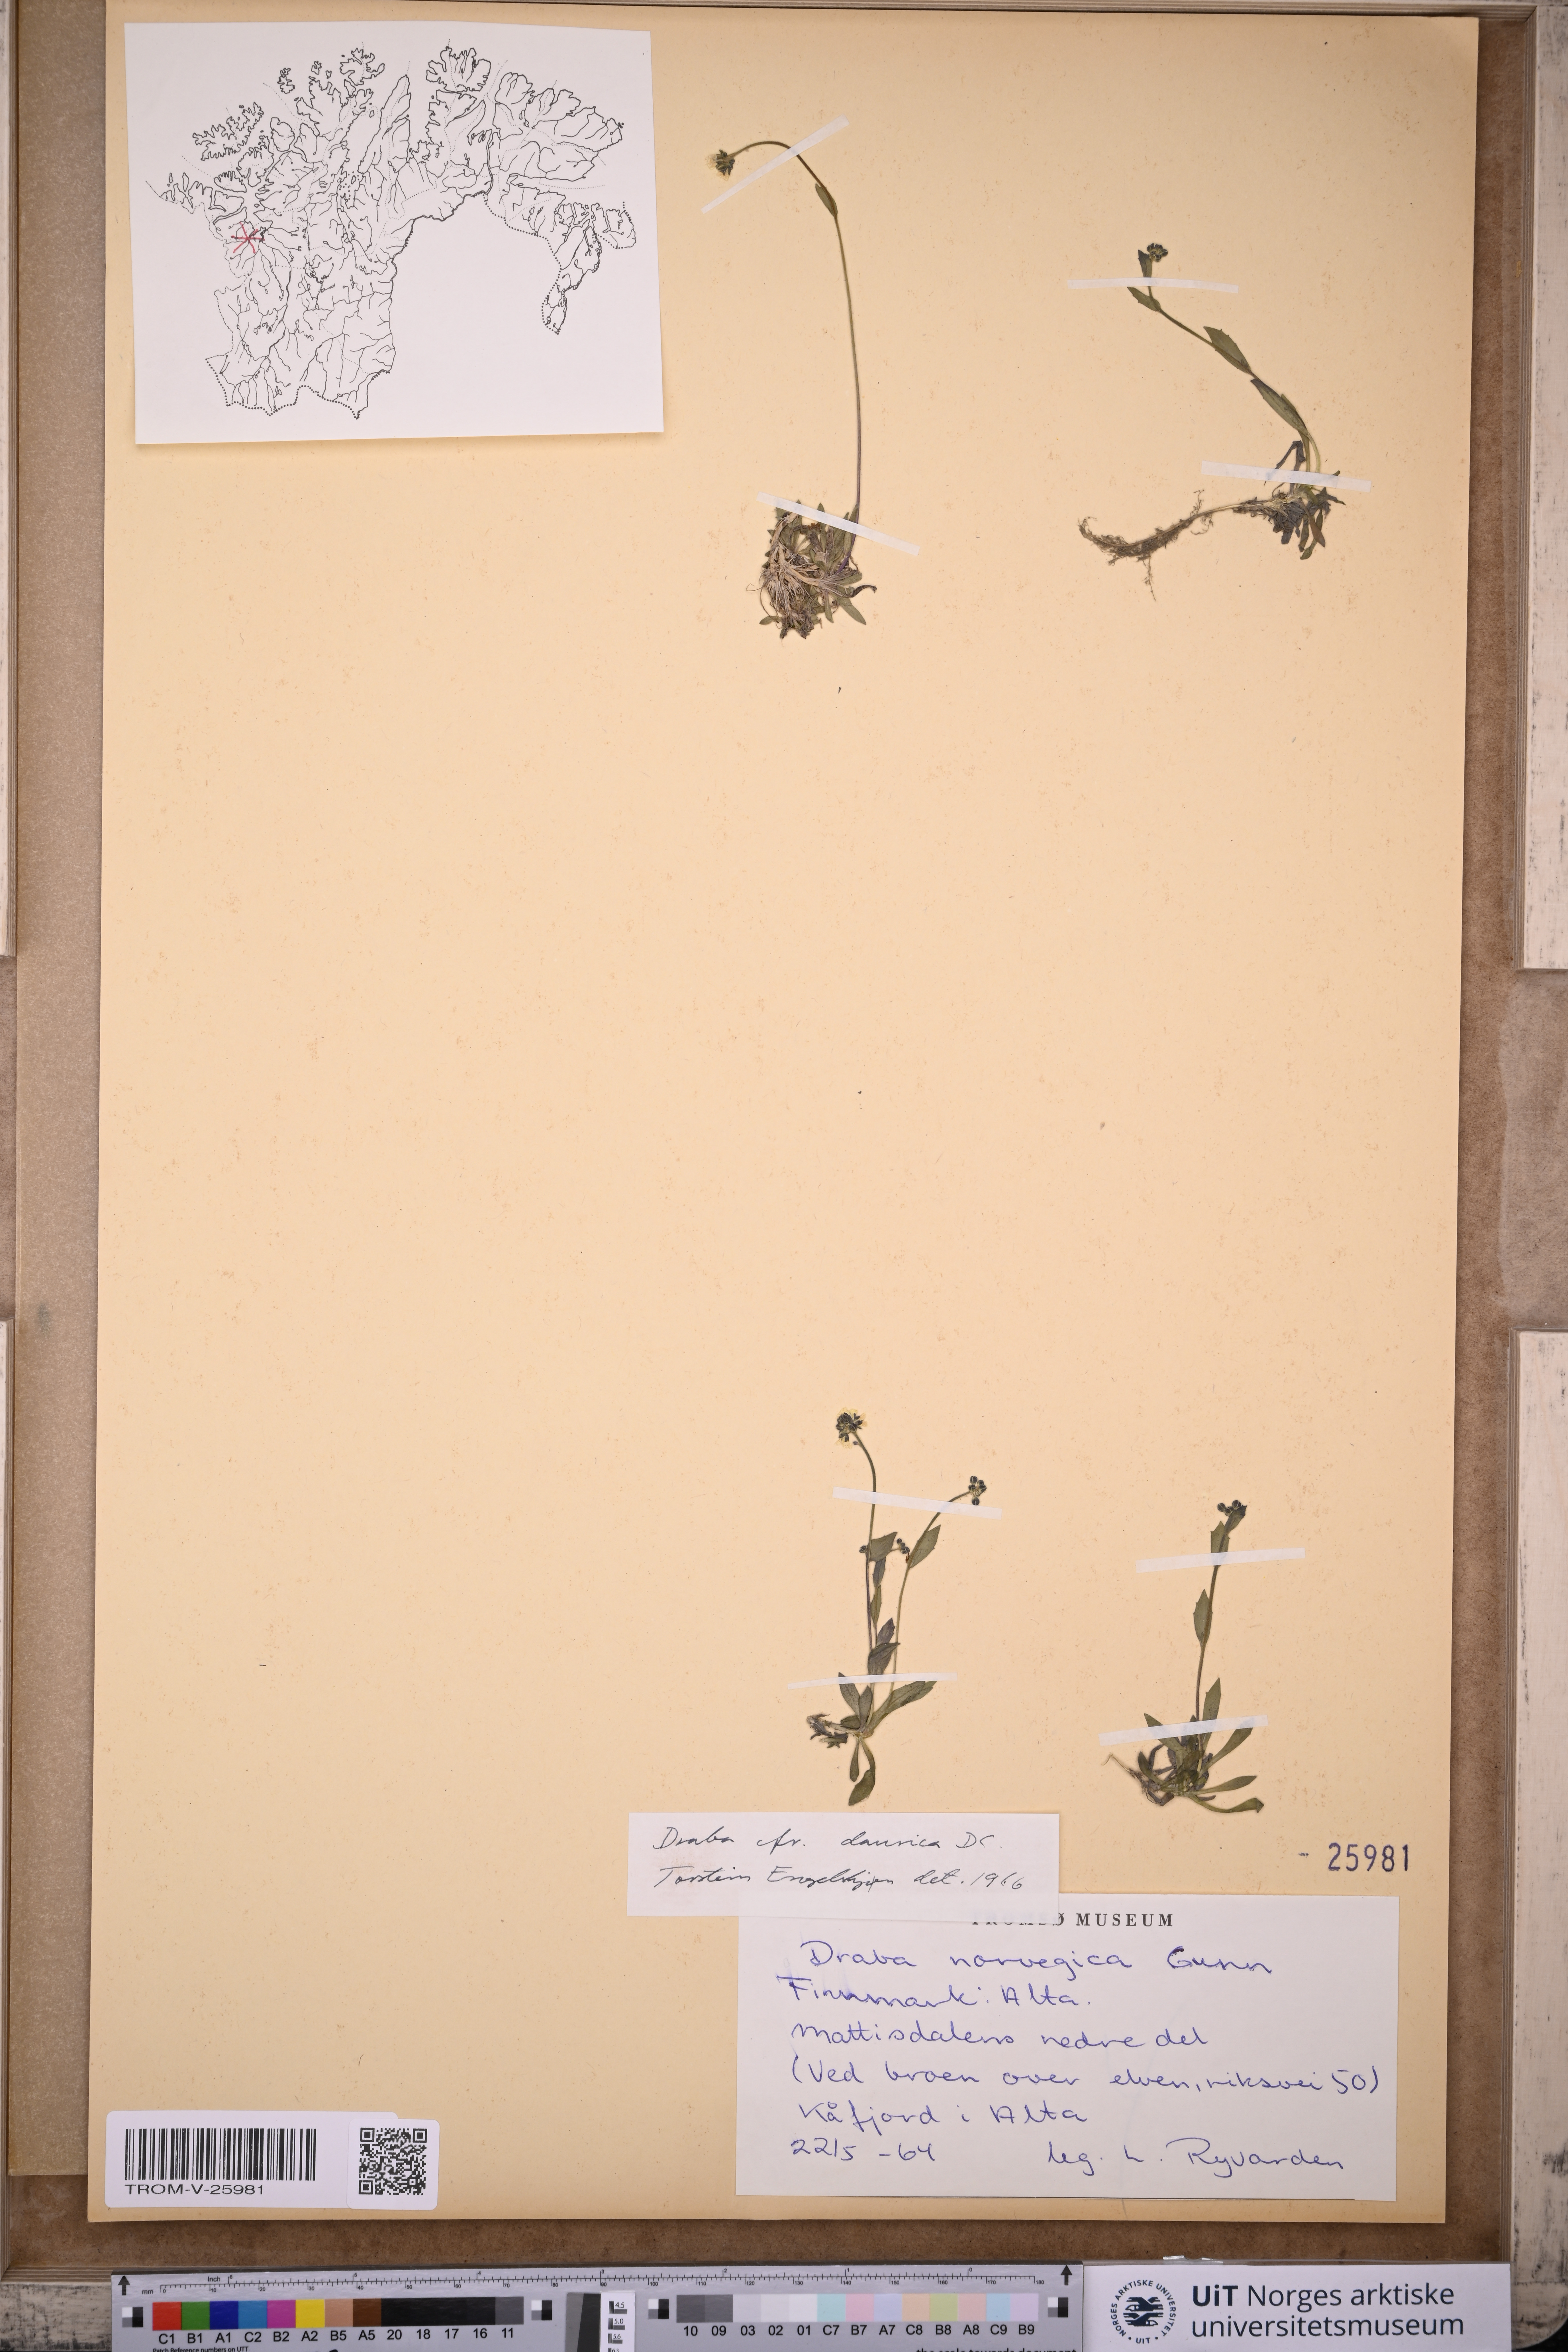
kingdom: Plantae
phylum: Tracheophyta
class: Magnoliopsida
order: Brassicales
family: Brassicaceae
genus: Draba
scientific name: Draba glabella
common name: Glaucous draba
